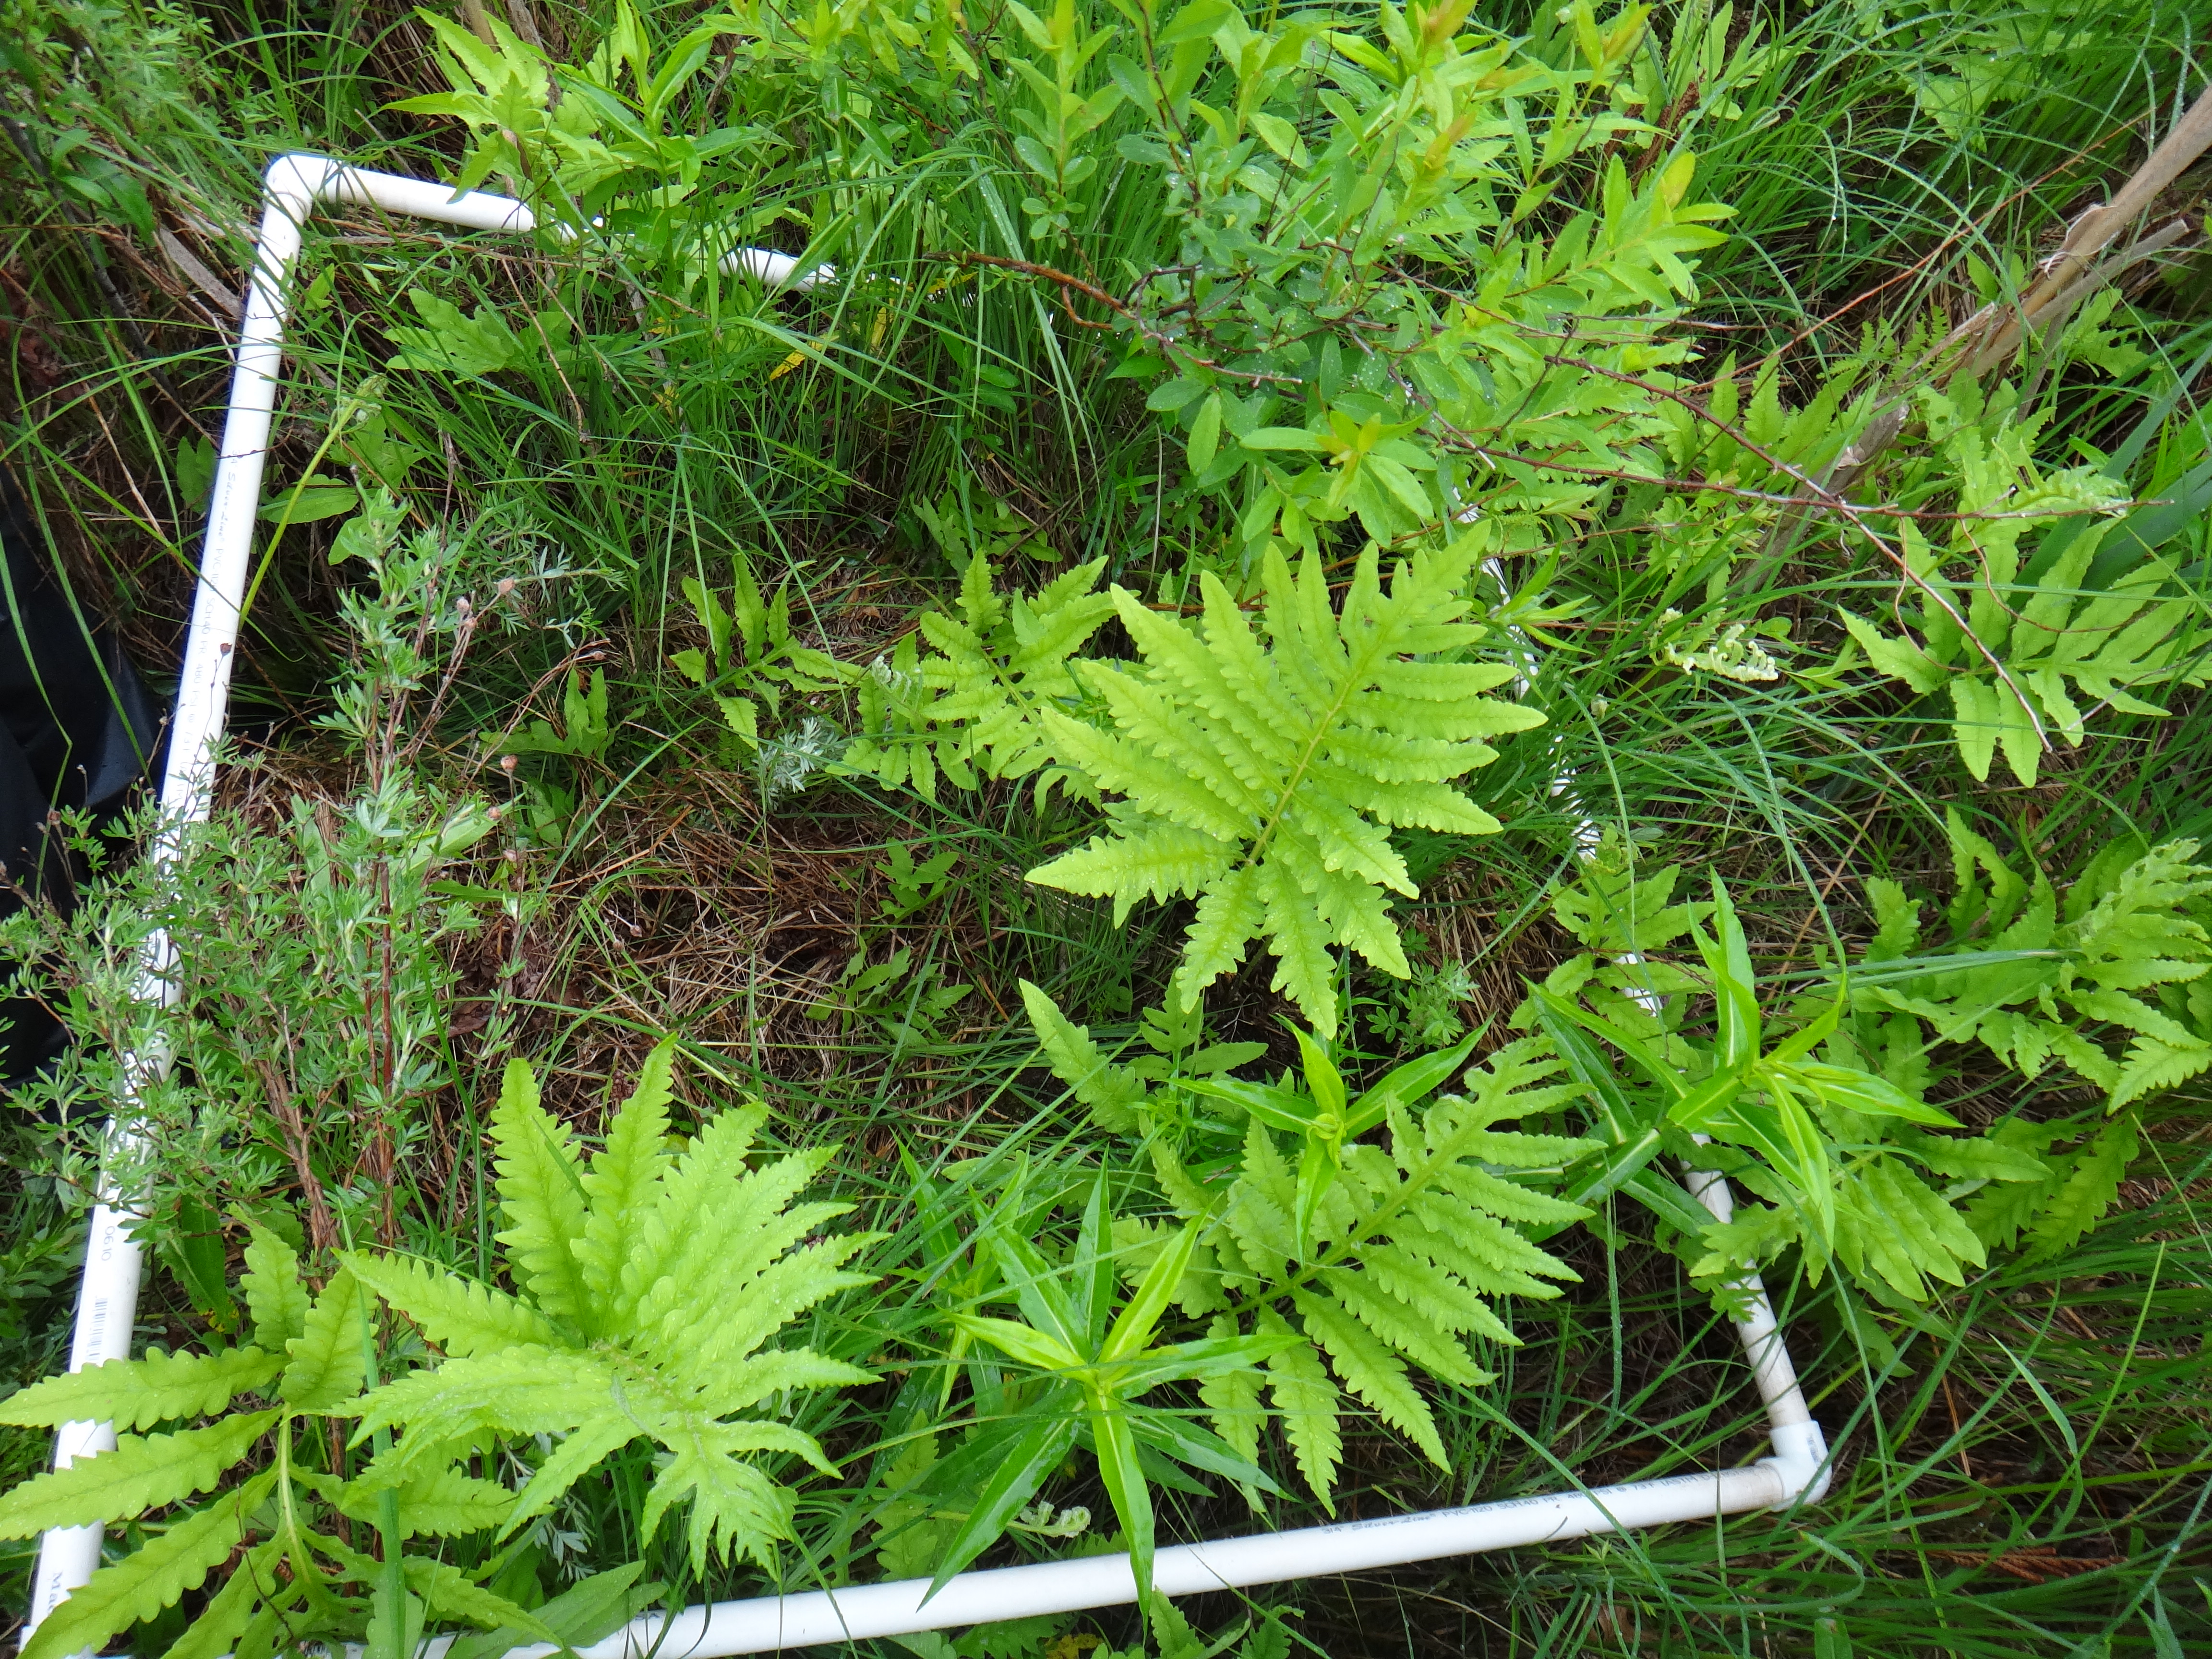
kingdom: Plantae
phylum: Tracheophyta
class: Magnoliopsida
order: Lamiales
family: Lamiaceae
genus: Lycopus
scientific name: Lycopus uniflorus
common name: Northern bugleweed
